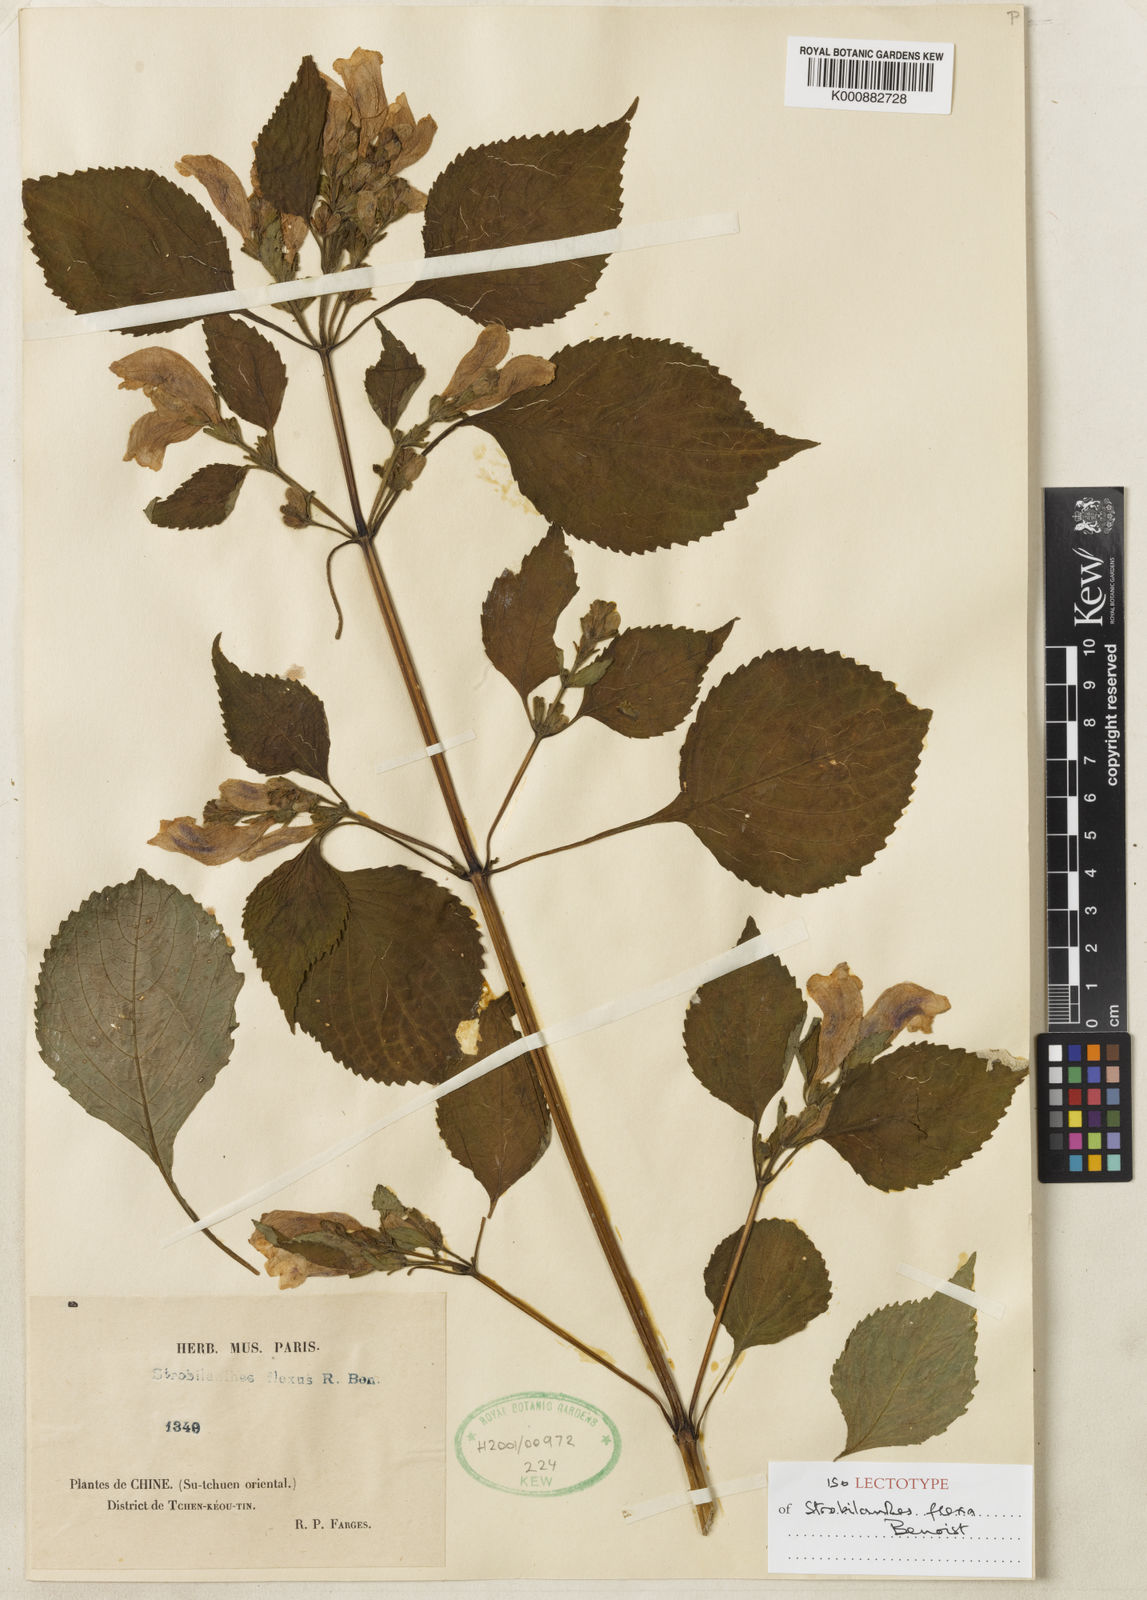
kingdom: Plantae
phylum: Tracheophyta
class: Magnoliopsida
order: Lamiales
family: Acanthaceae
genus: Strobilanthes
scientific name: Strobilanthes versicolor
